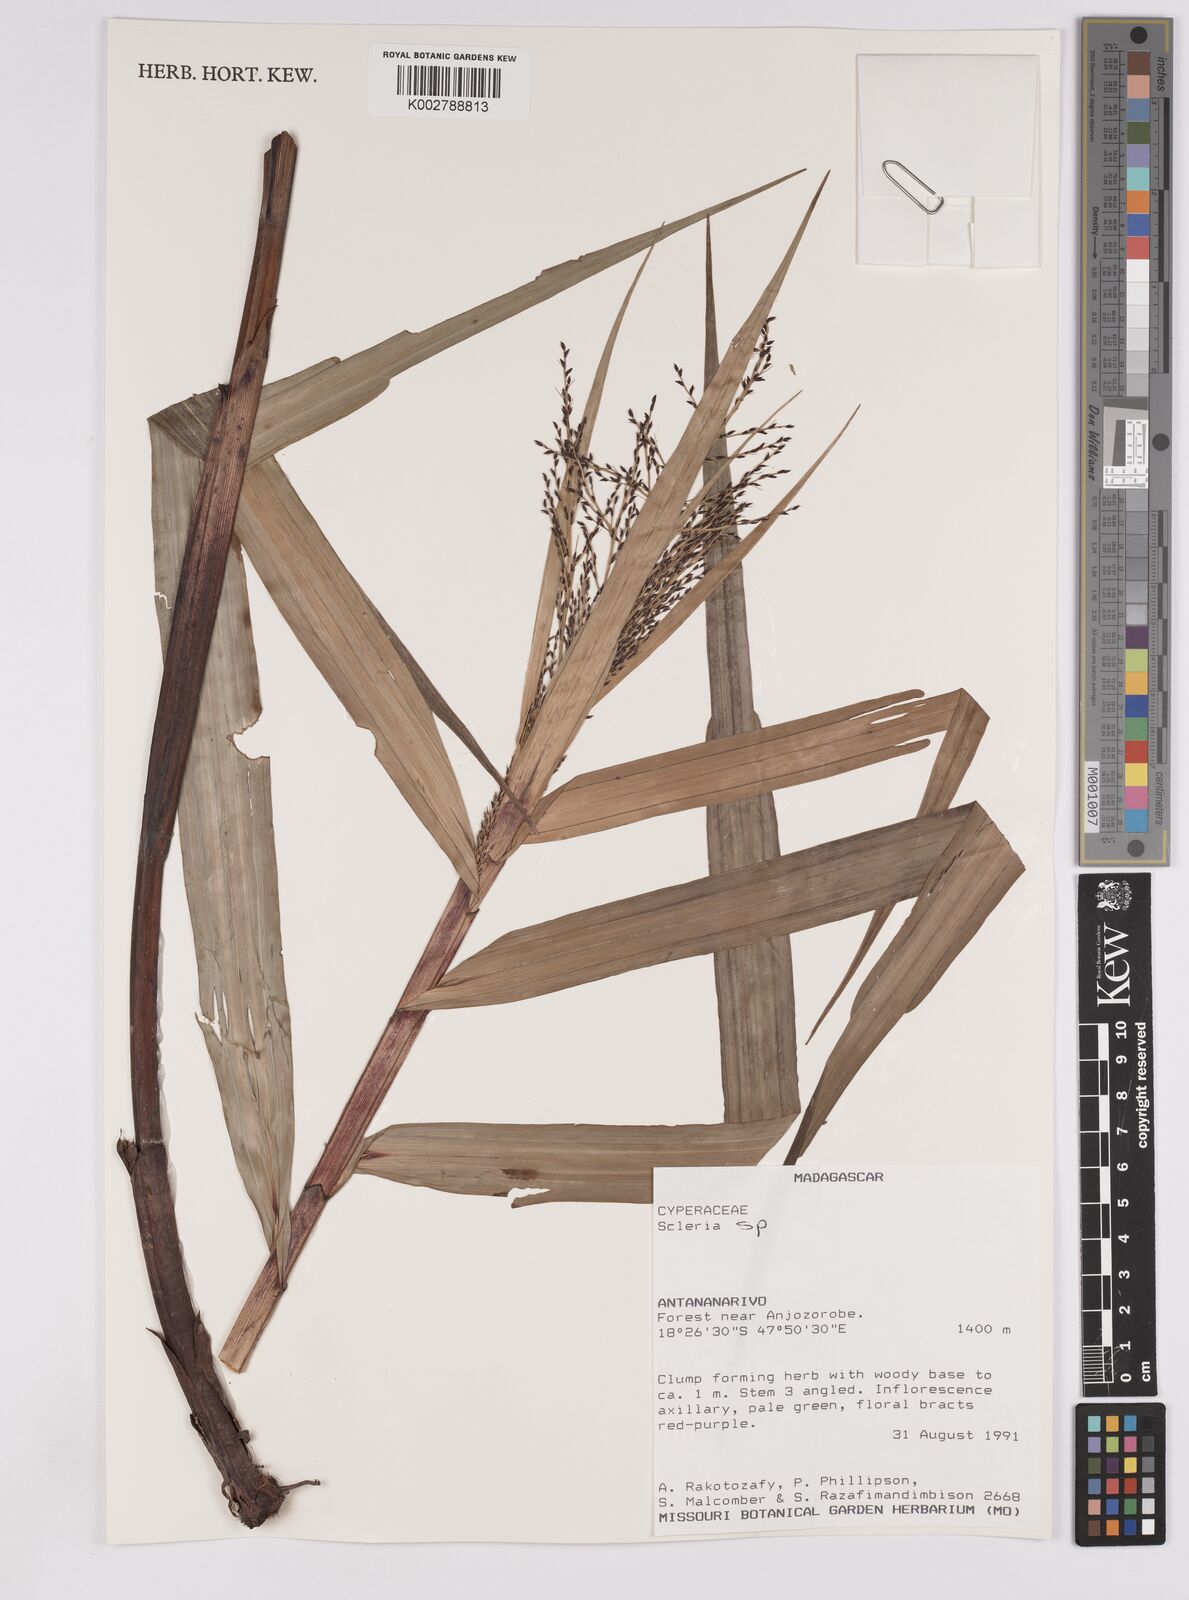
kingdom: Plantae
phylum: Tracheophyta
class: Liliopsida
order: Poales
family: Cyperaceae
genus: Scleria
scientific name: Scleria
